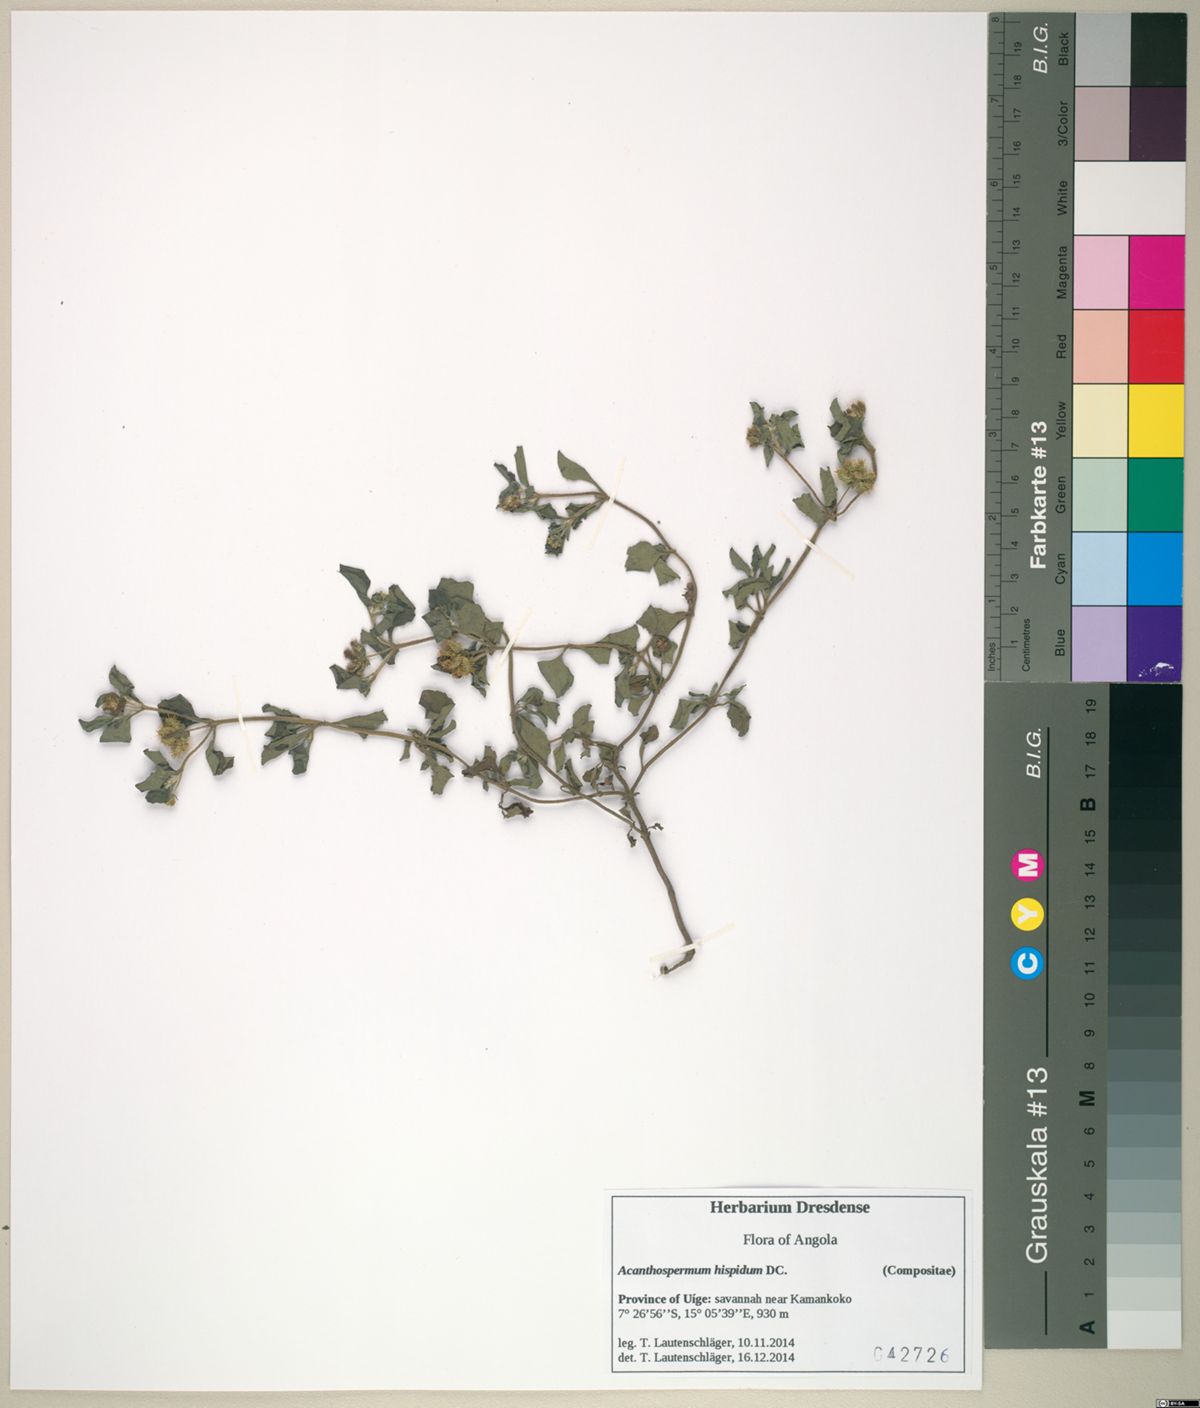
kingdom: Plantae
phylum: Tracheophyta
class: Magnoliopsida
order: Asterales
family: Asteraceae
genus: Acanthospermum
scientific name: Acanthospermum hispidum
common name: Hispid starbur
